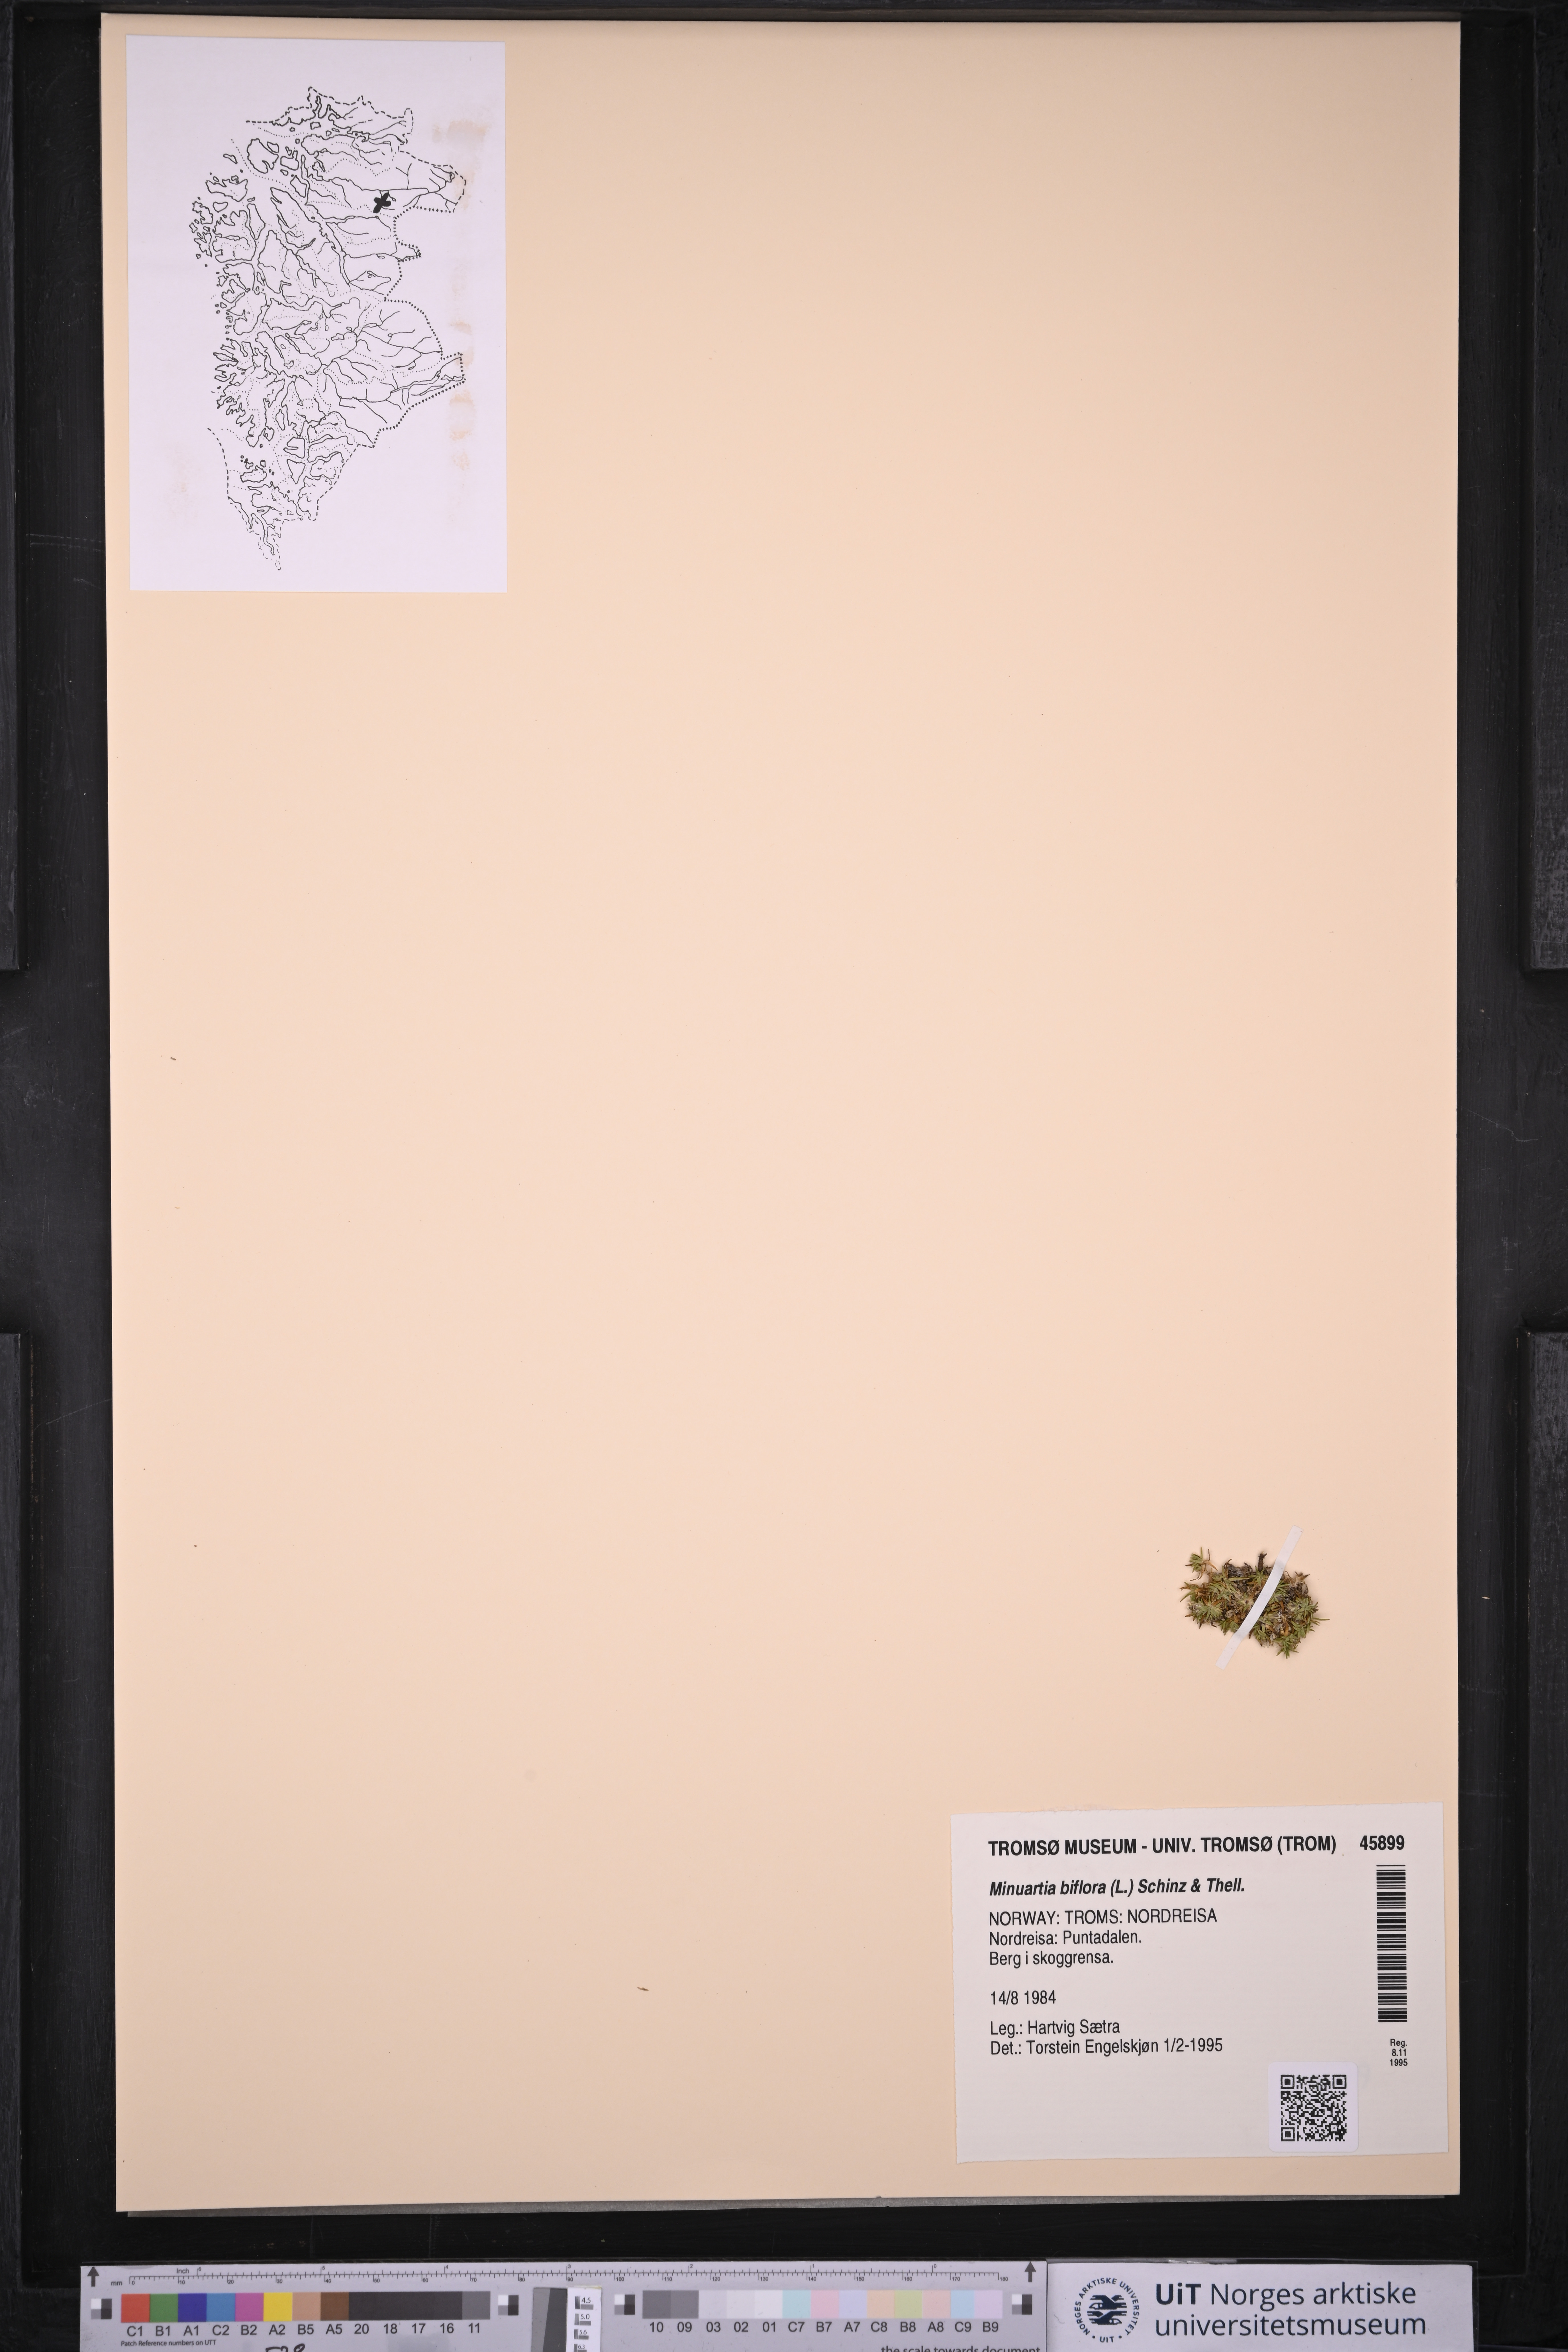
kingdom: Plantae
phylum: Tracheophyta
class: Magnoliopsida
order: Caryophyllales
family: Caryophyllaceae
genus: Cherleria
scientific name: Cherleria biflora
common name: Mountain sandwort
